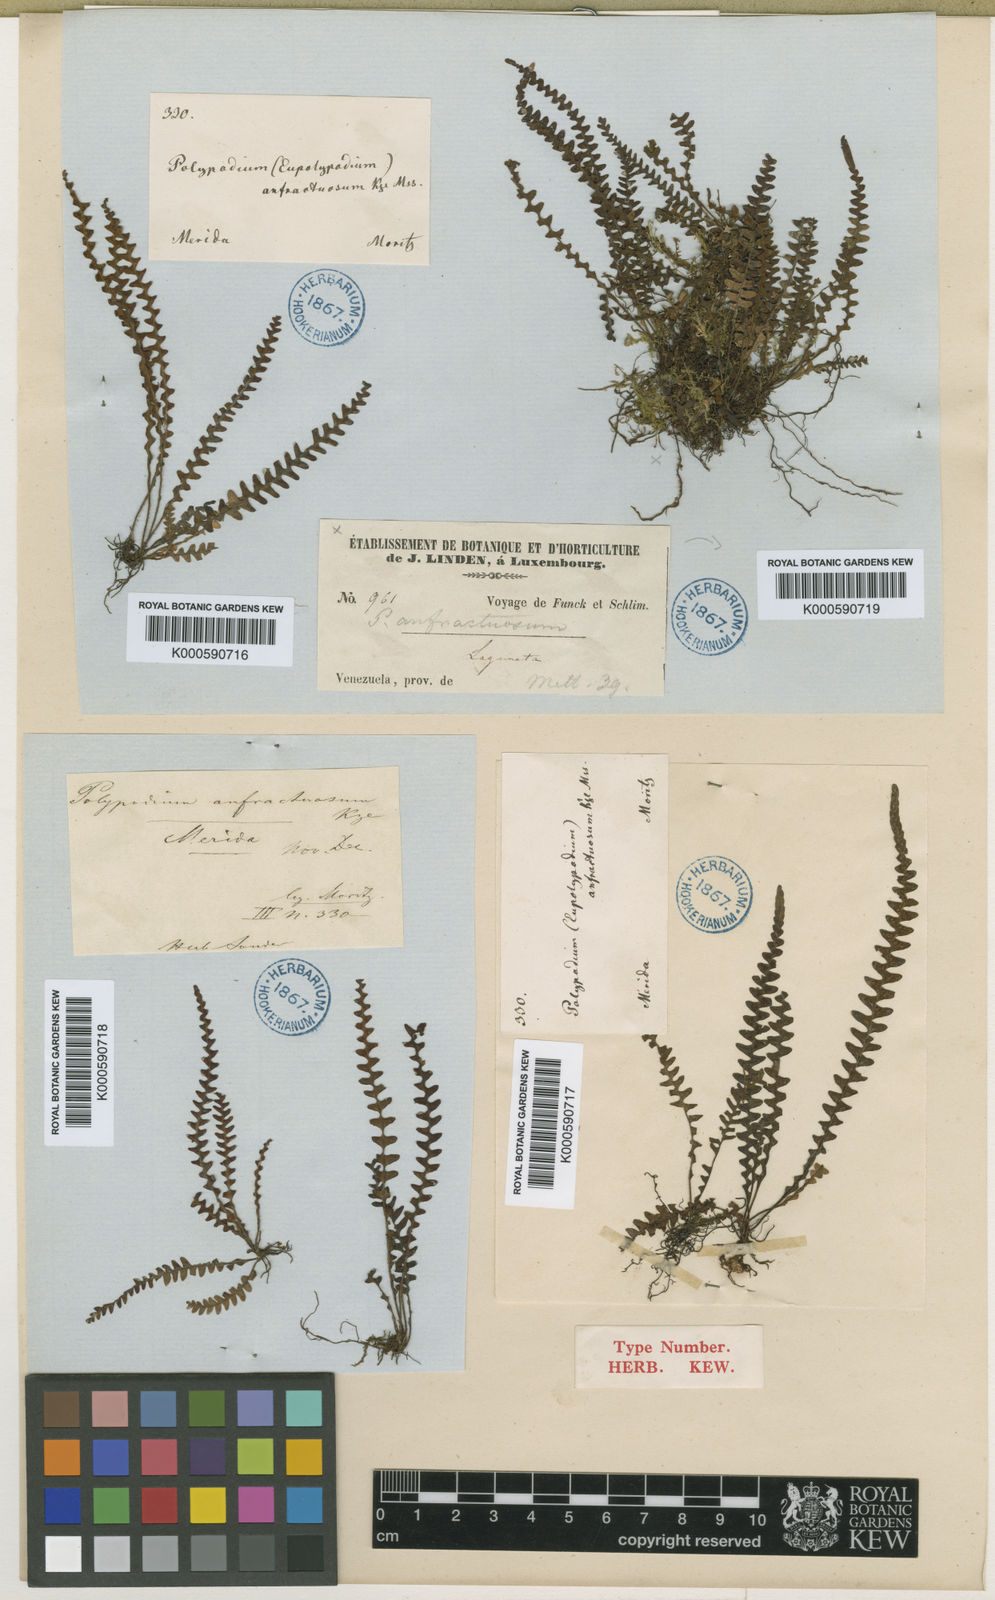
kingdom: Plantae
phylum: Tracheophyta
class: Polypodiopsida
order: Polypodiales
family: Polypodiaceae
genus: Ascogrammitis
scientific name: Ascogrammitis anfractuosa
